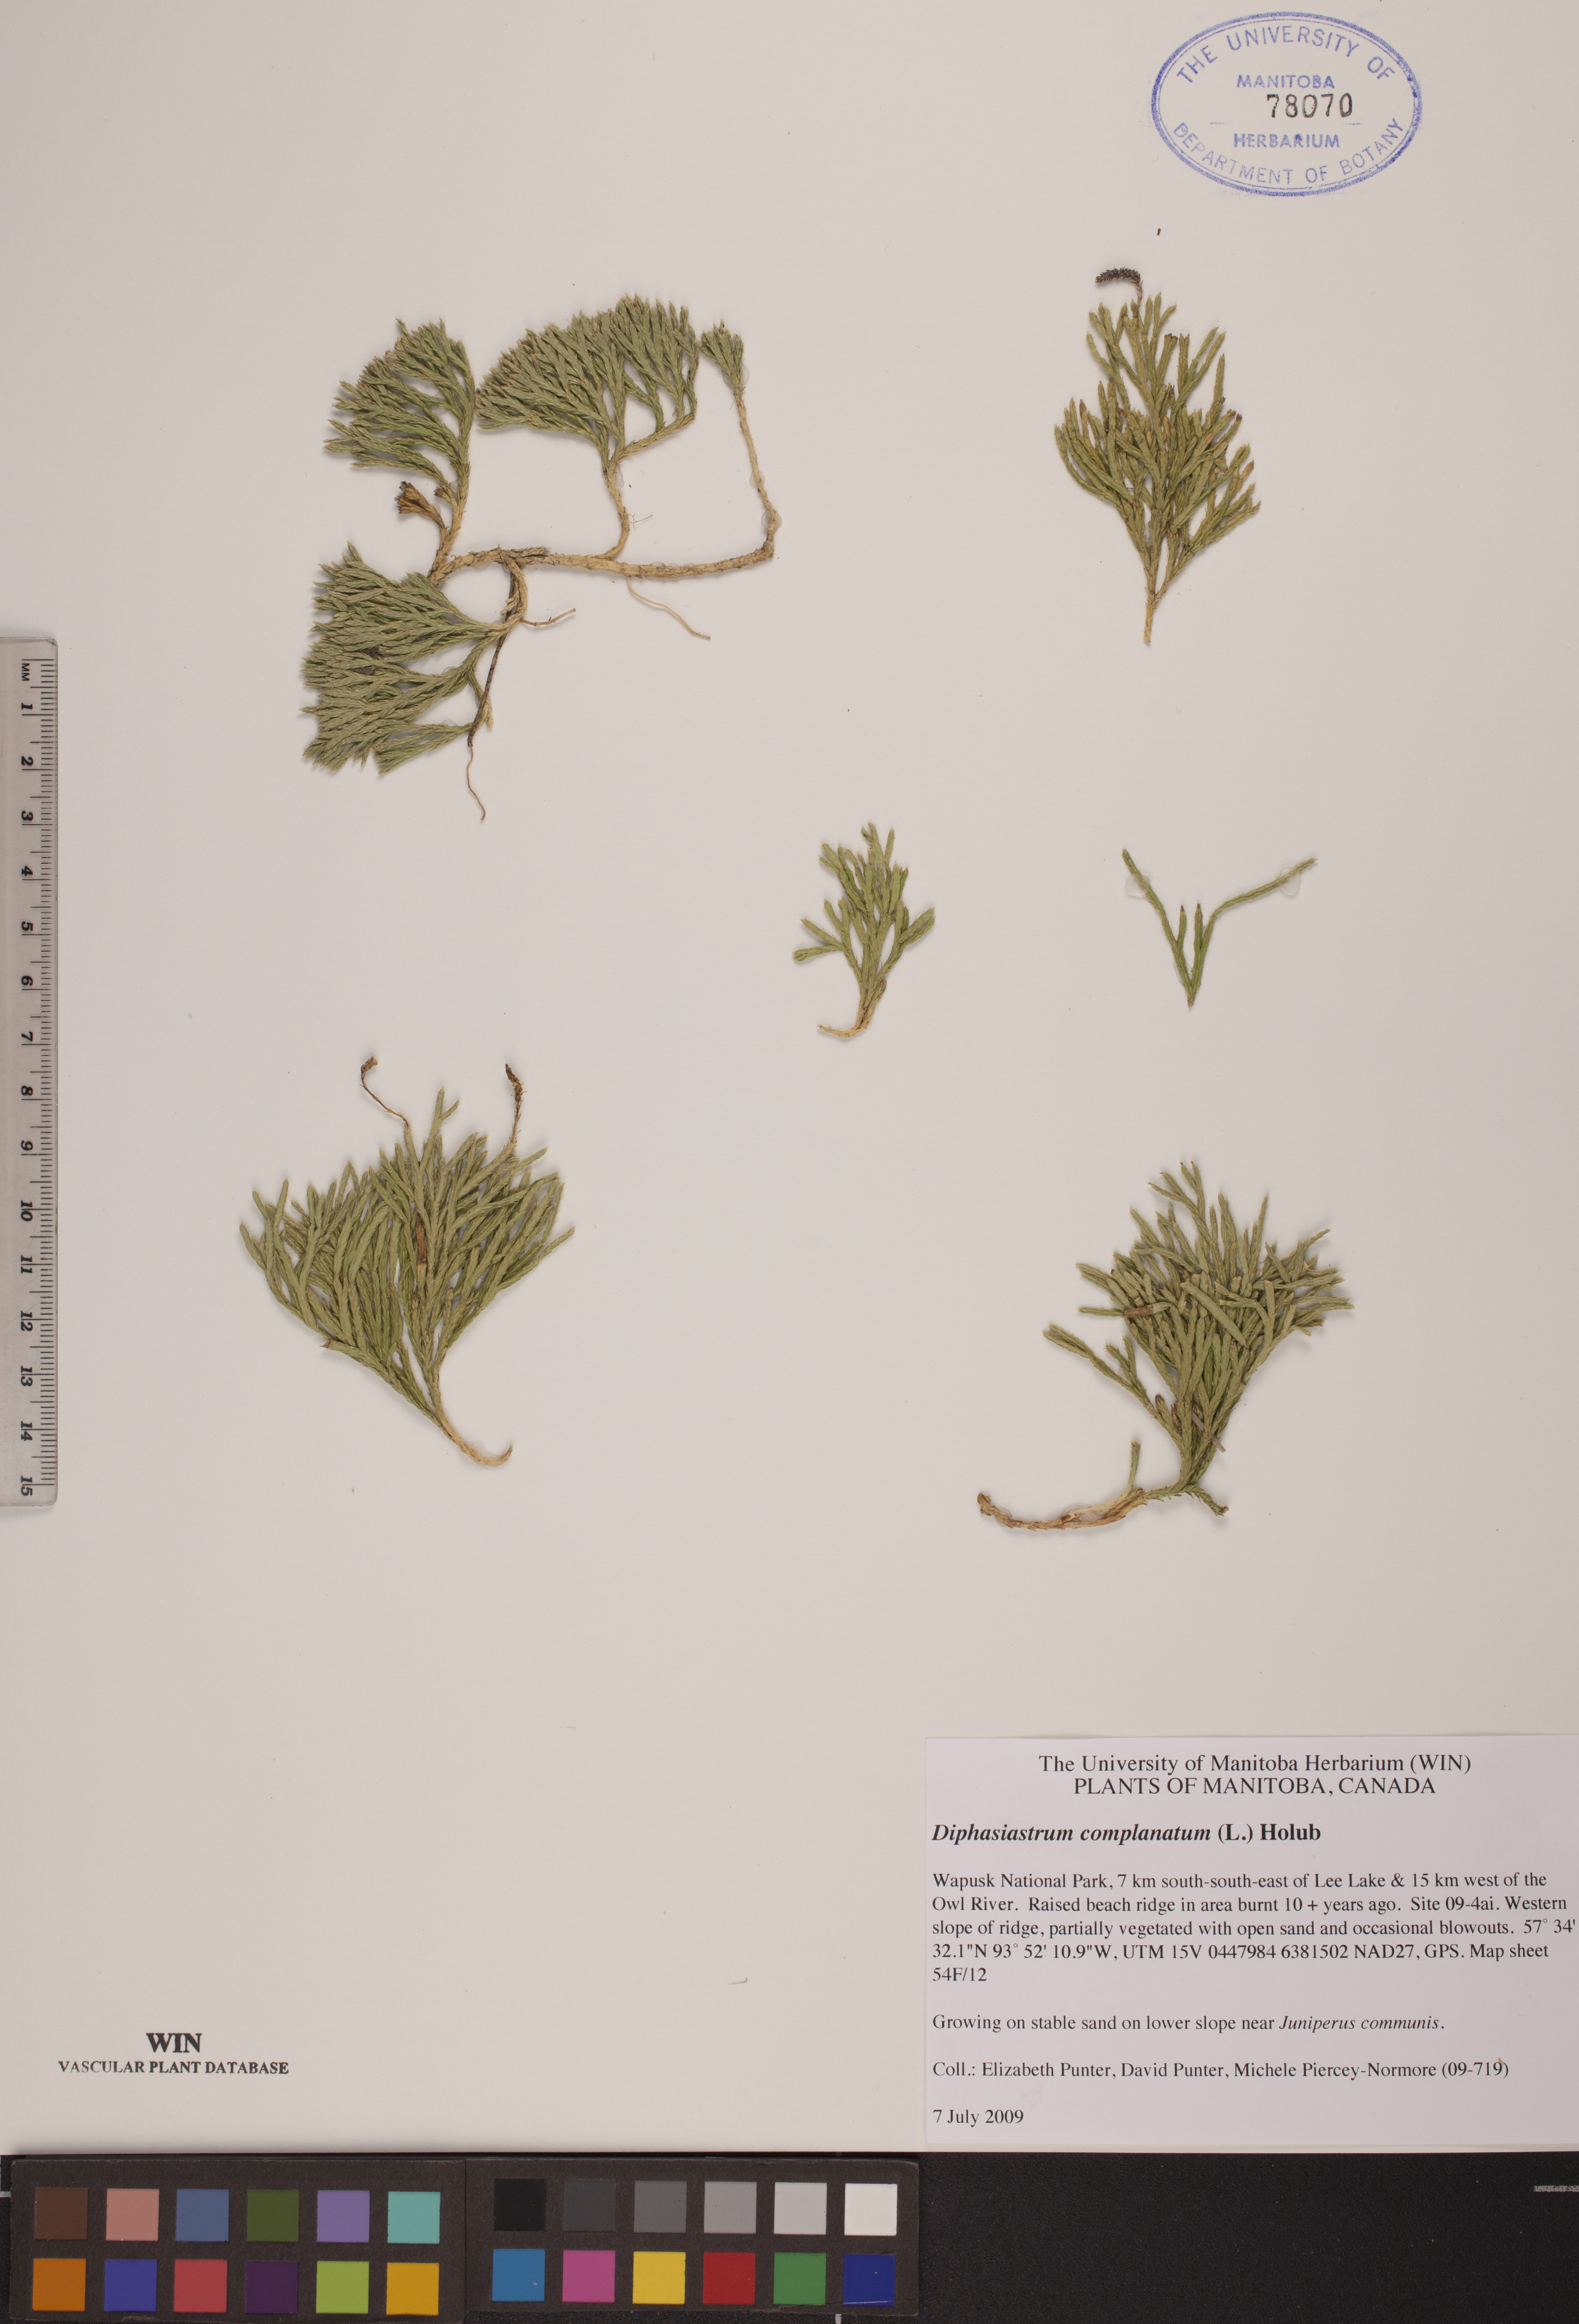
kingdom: Plantae
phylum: Tracheophyta
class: Lycopodiopsida
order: Lycopodiales
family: Lycopodiaceae
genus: Diphasiastrum
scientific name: Diphasiastrum complanatum
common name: Northern running-pine
